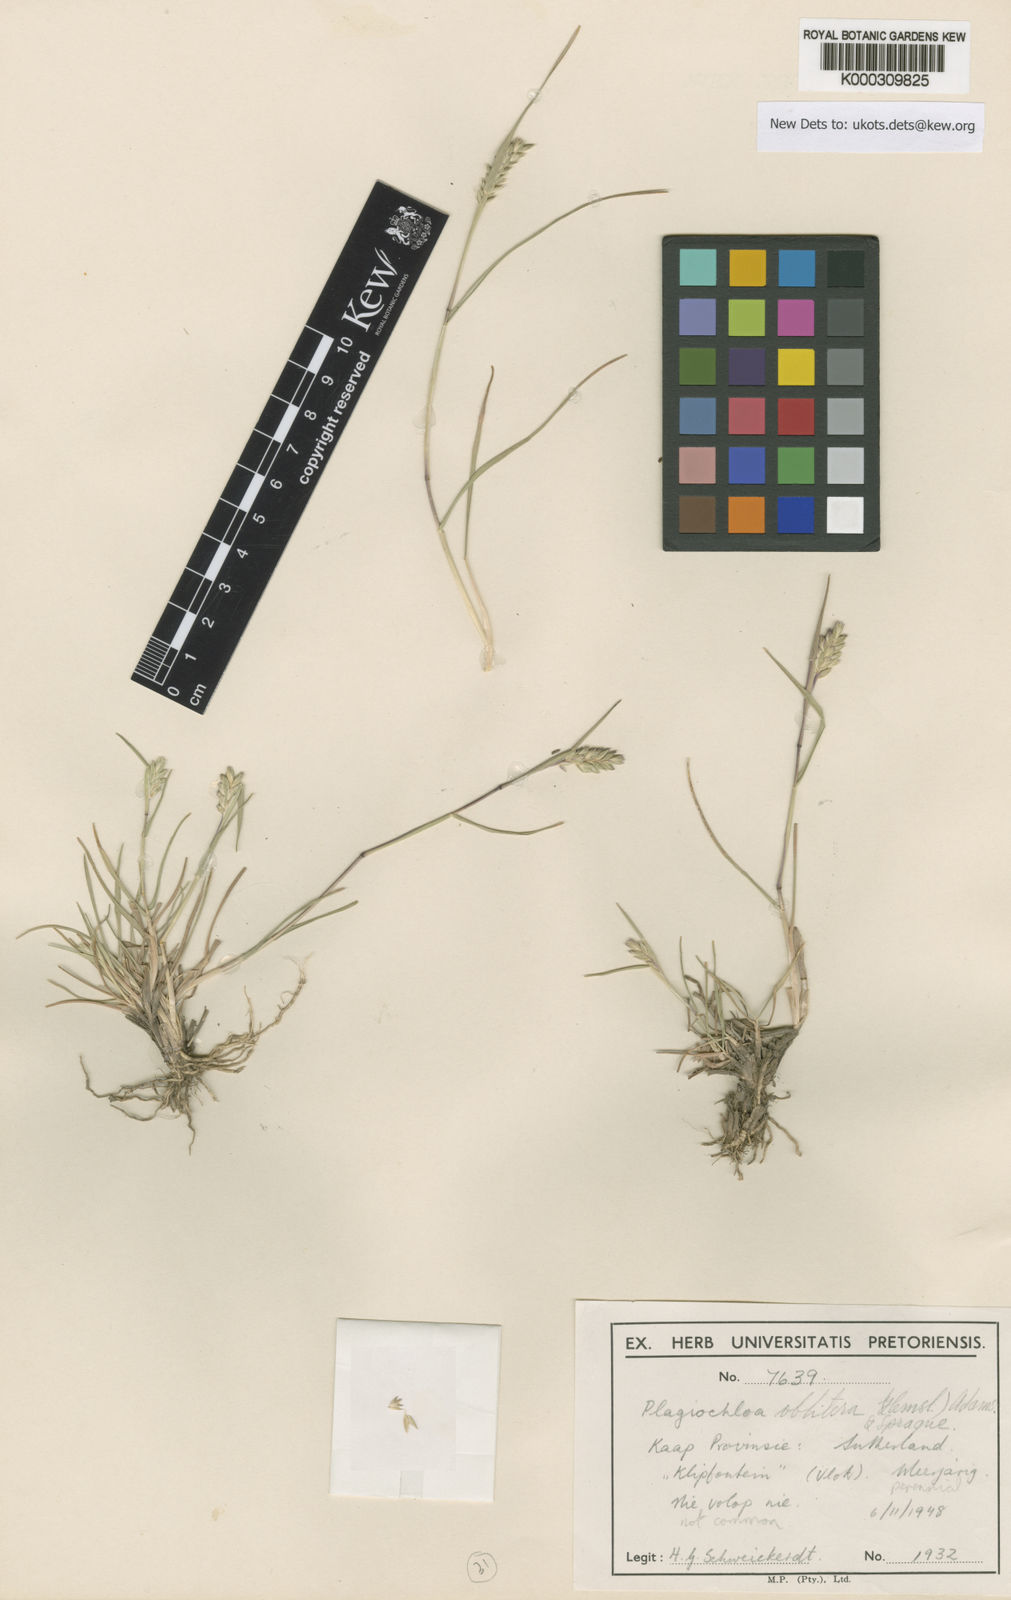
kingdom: Plantae
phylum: Tracheophyta
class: Liliopsida
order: Poales
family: Poaceae
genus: Tribolium
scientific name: Tribolium obliterum
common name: Capetown grass
